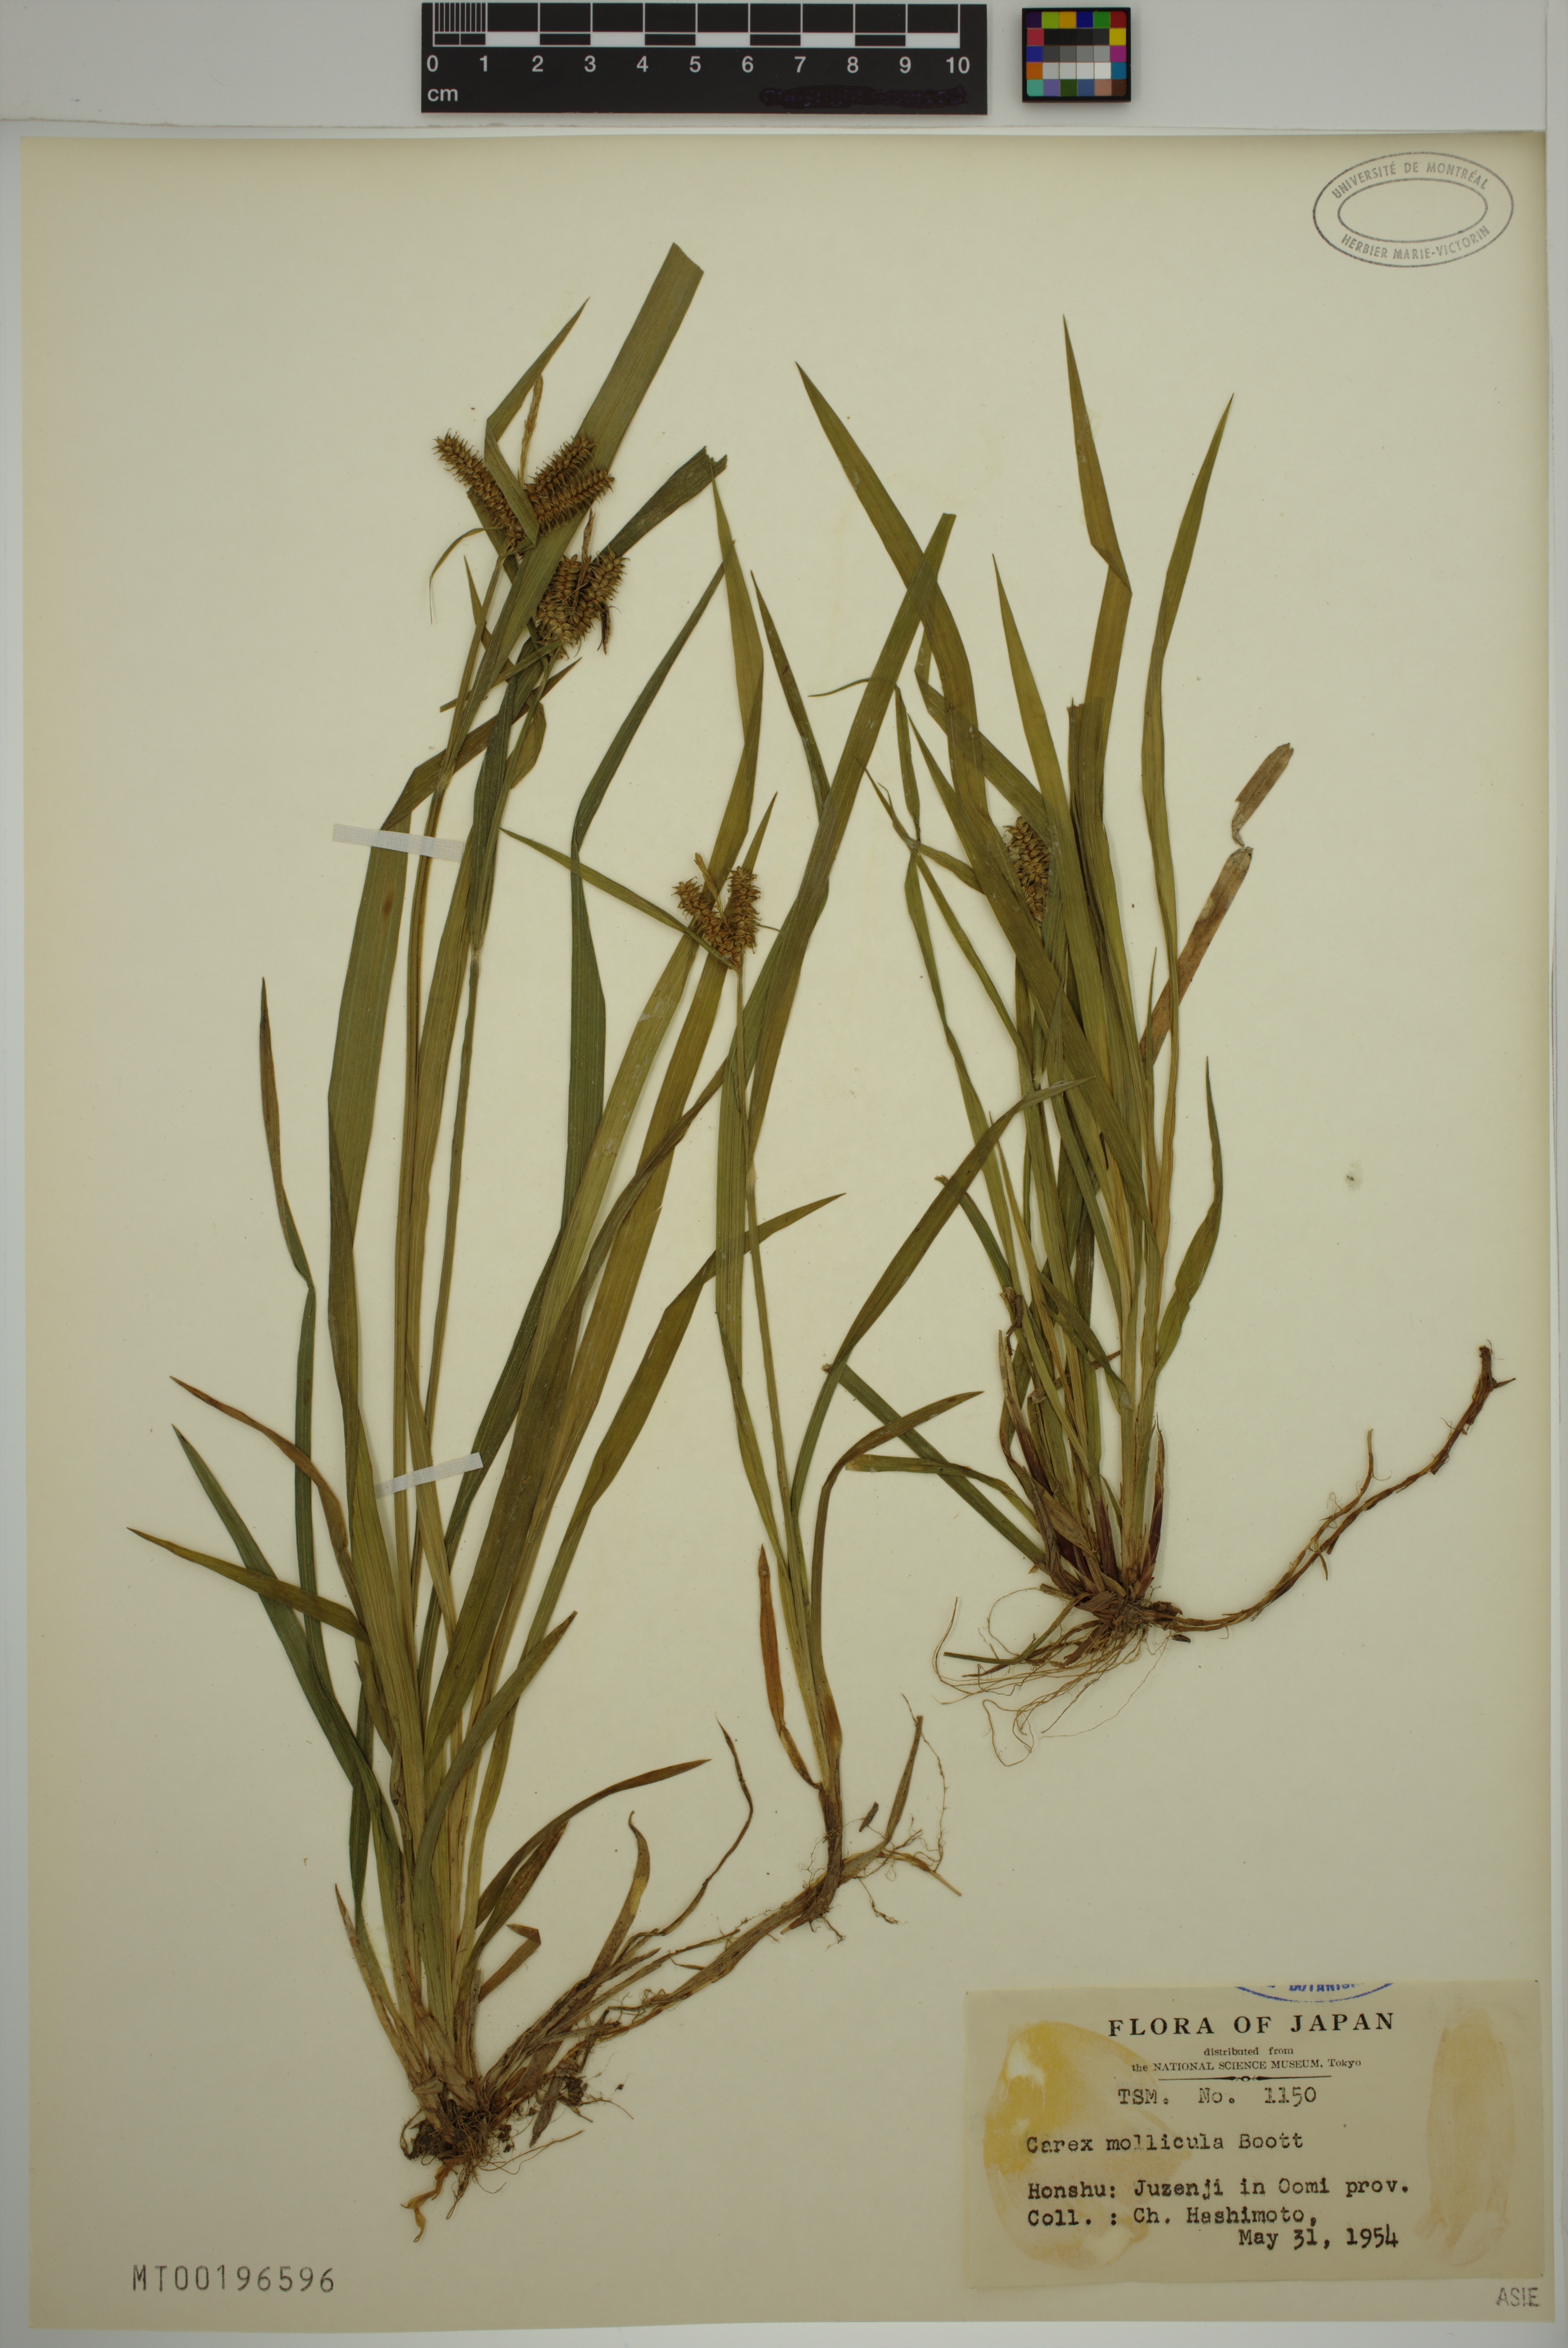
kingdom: Plantae
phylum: Tracheophyta
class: Liliopsida
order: Poales
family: Cyperaceae
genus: Carex
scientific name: Carex mollicula
